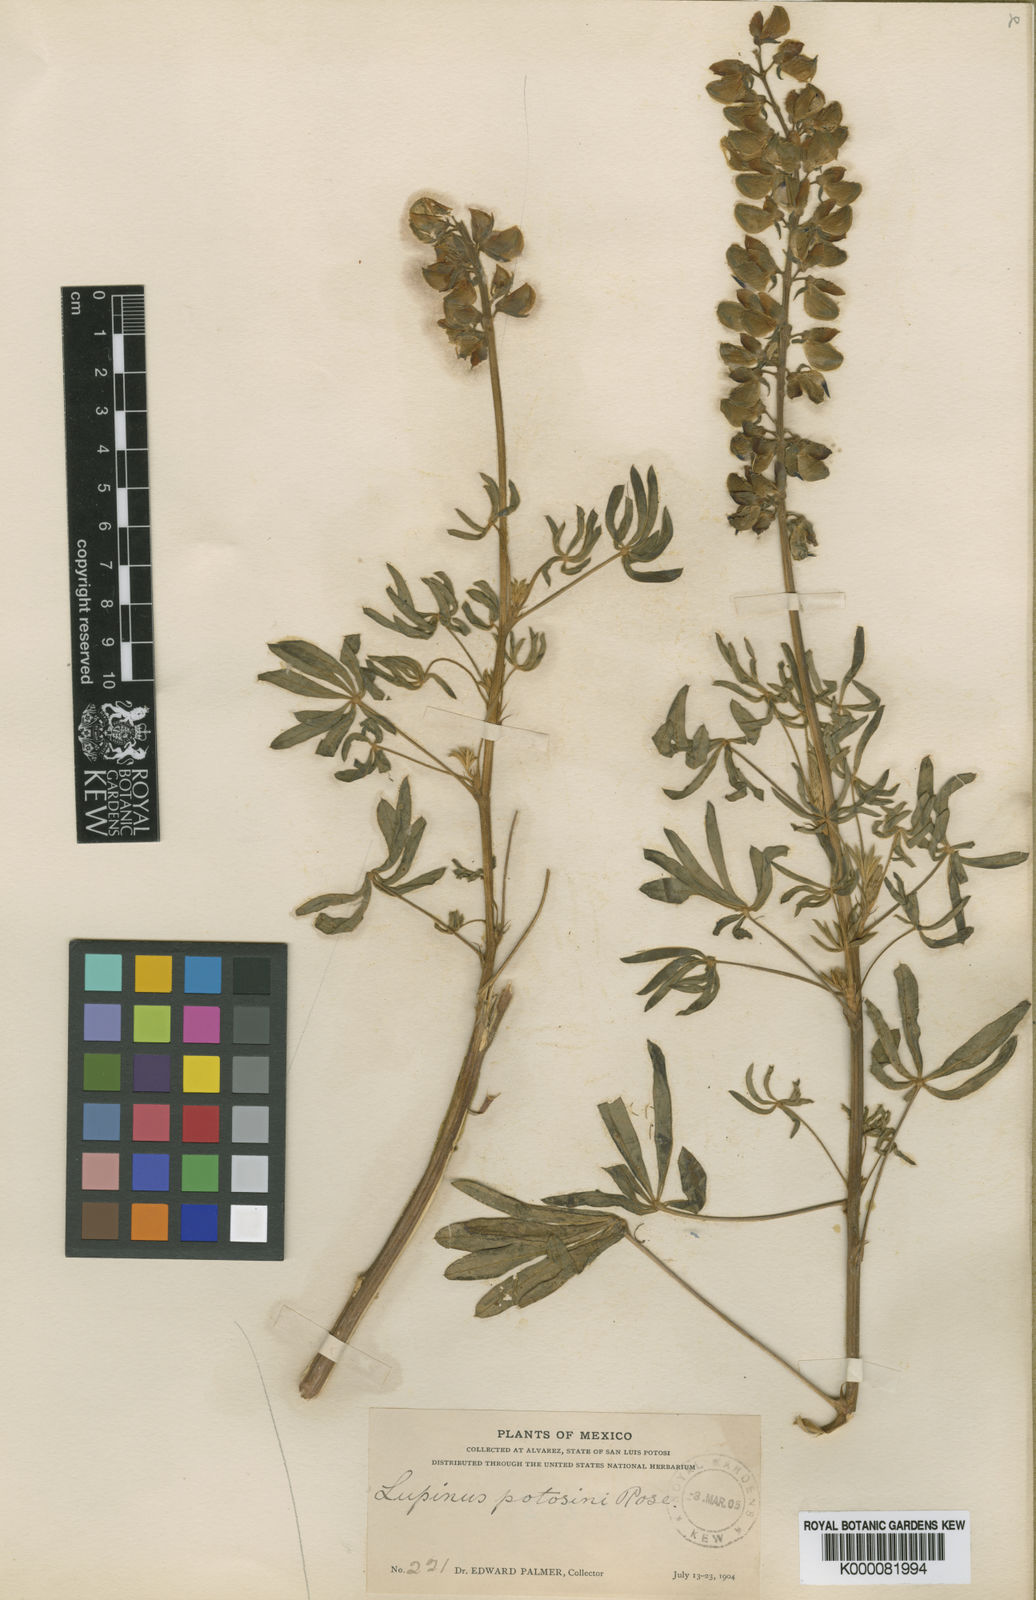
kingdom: Plantae
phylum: Tracheophyta
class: Magnoliopsida
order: Fabales
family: Fabaceae
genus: Lupinus
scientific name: Lupinus potosinus
